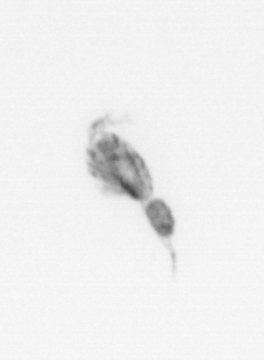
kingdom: Animalia
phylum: Arthropoda
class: Copepoda
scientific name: Copepoda
